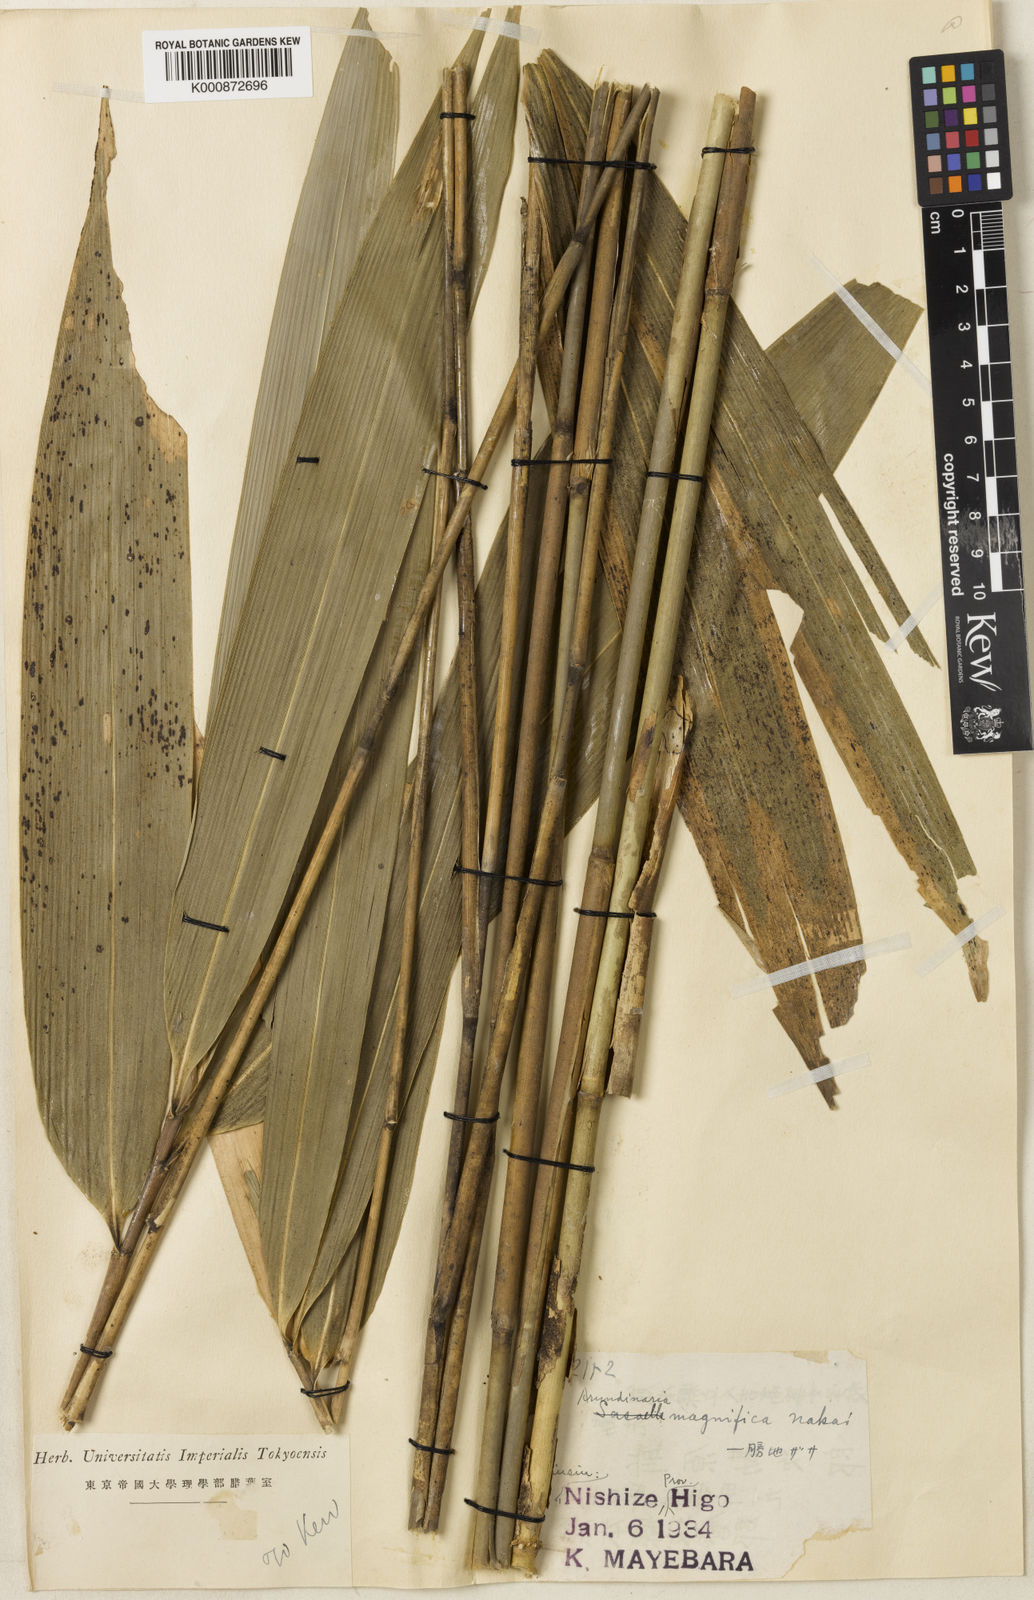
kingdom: Plantae
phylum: Tracheophyta
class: Liliopsida
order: Poales
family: Poaceae
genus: Sasa
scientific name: Sasa magnifica
